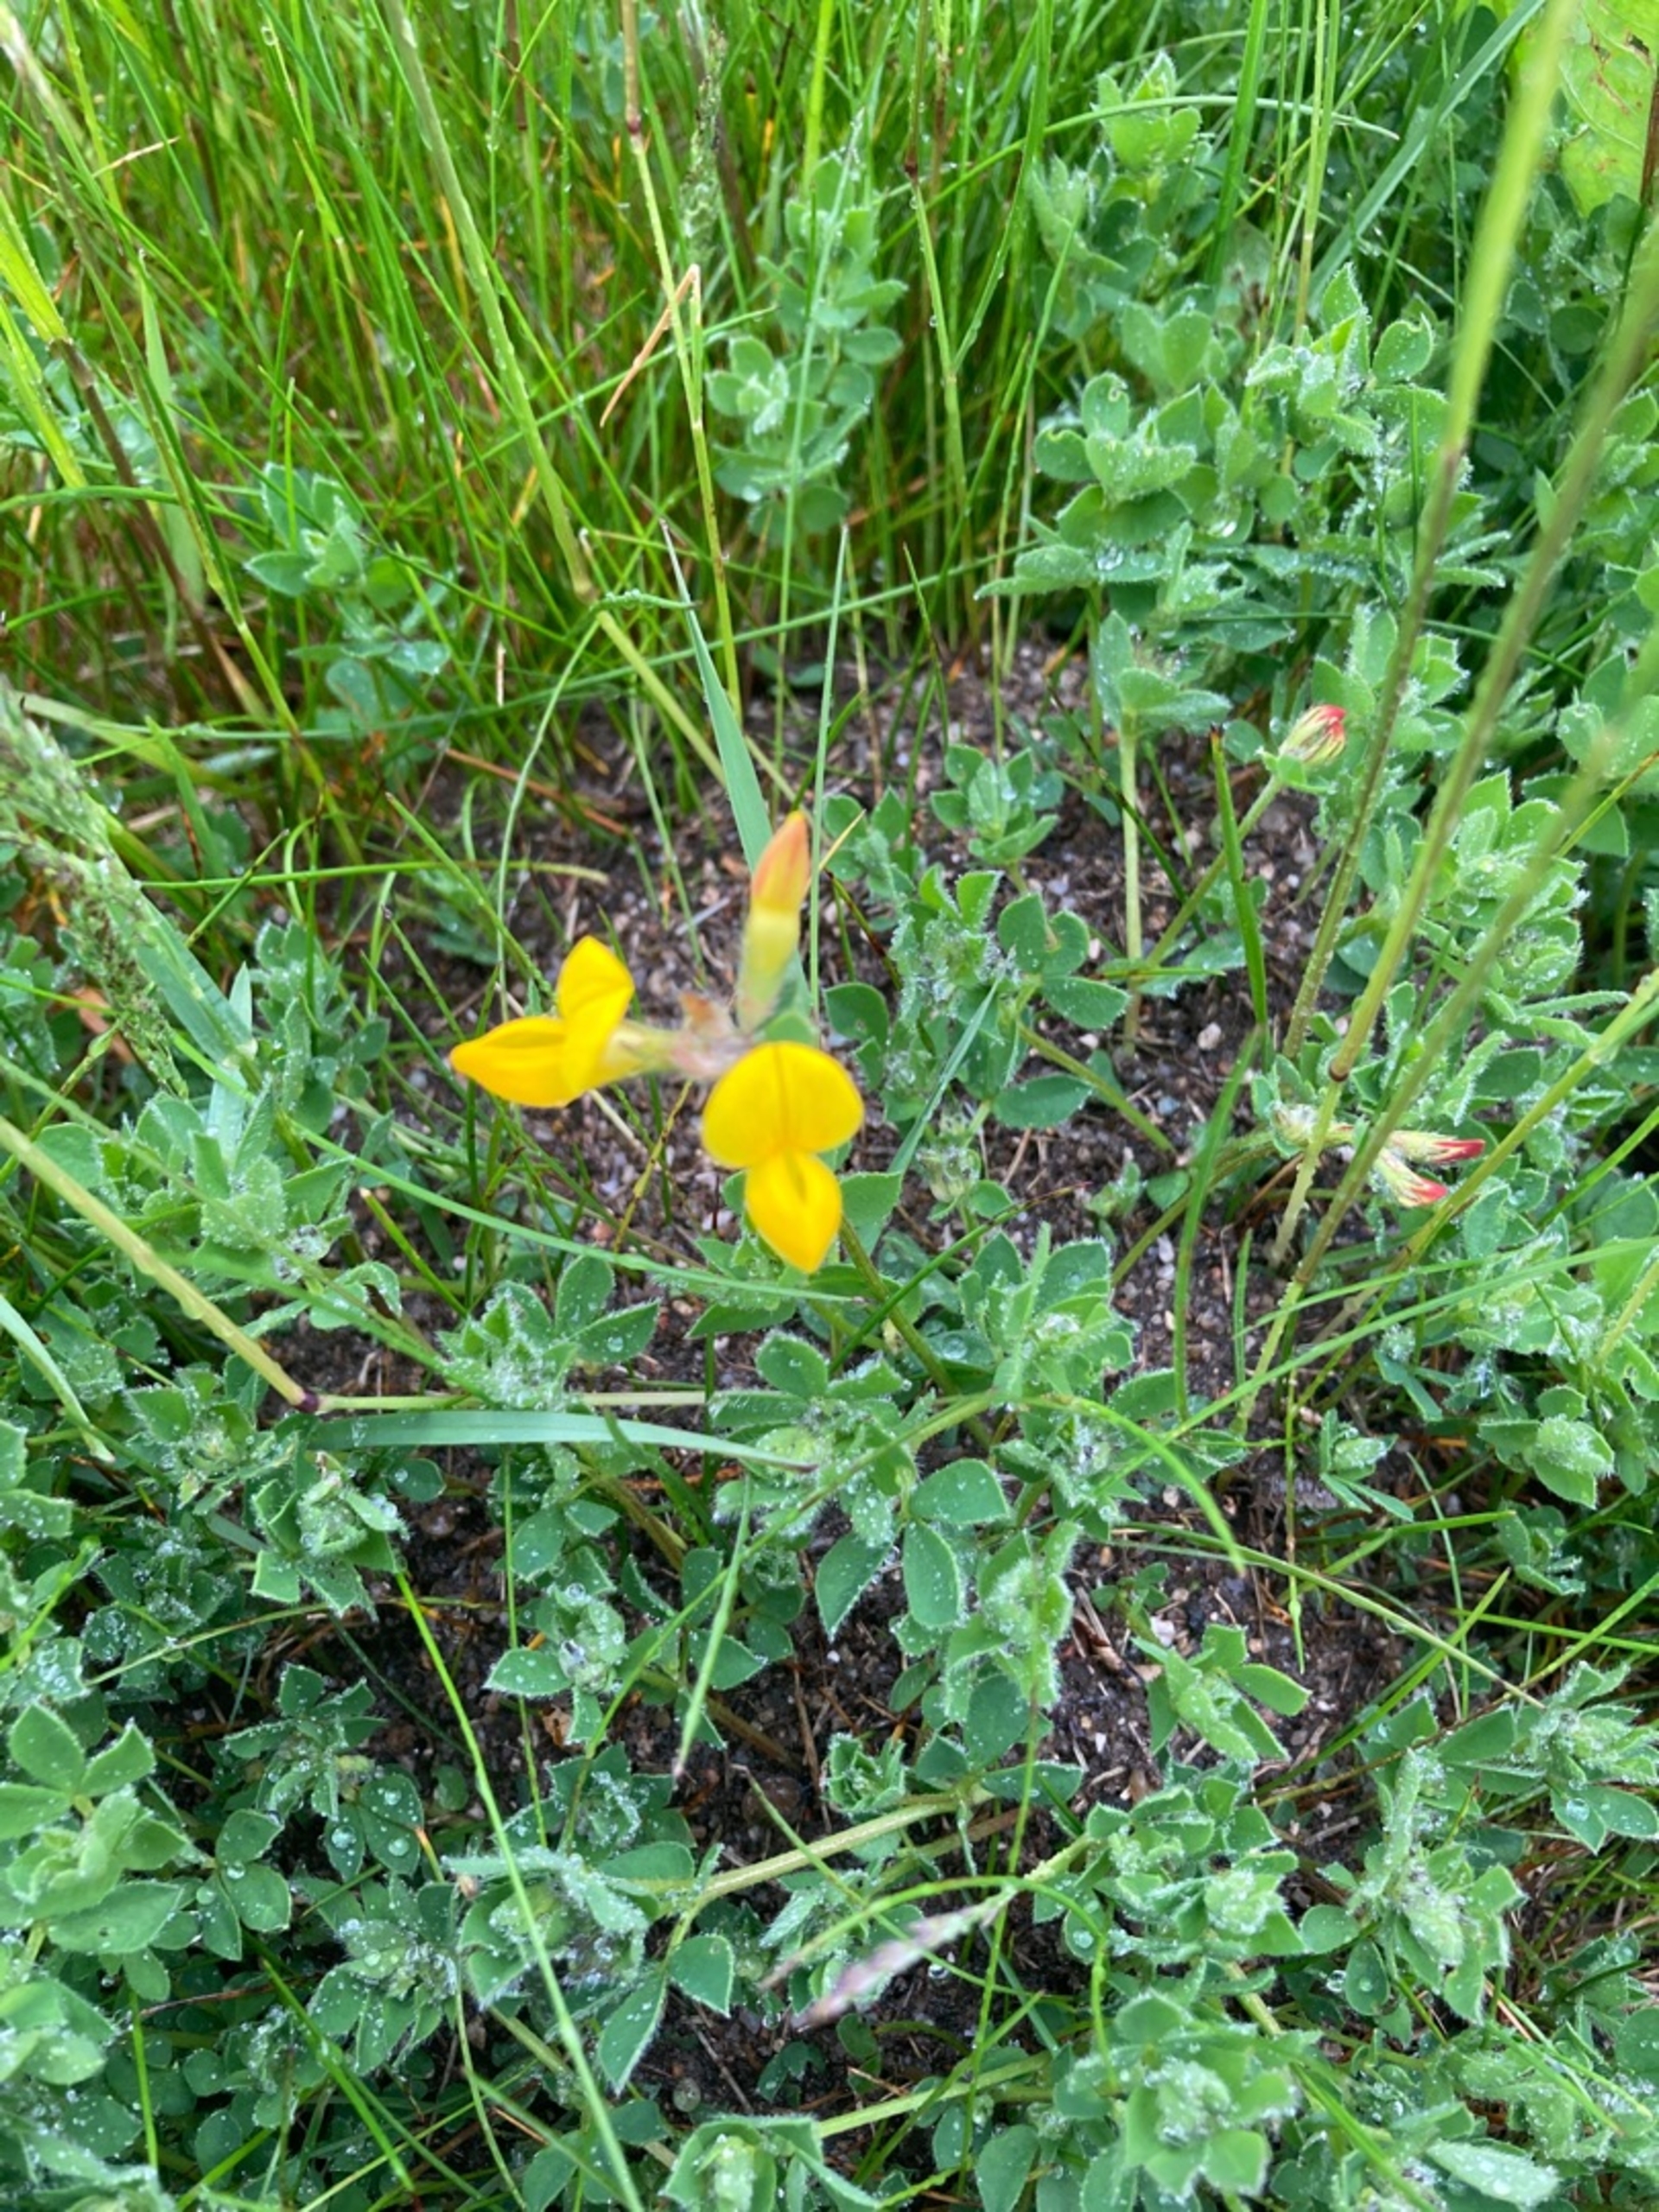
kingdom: Plantae
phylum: Tracheophyta
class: Magnoliopsida
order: Fabales
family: Fabaceae
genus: Lotus
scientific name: Lotus corniculatus
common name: Almindelig kællingetand
